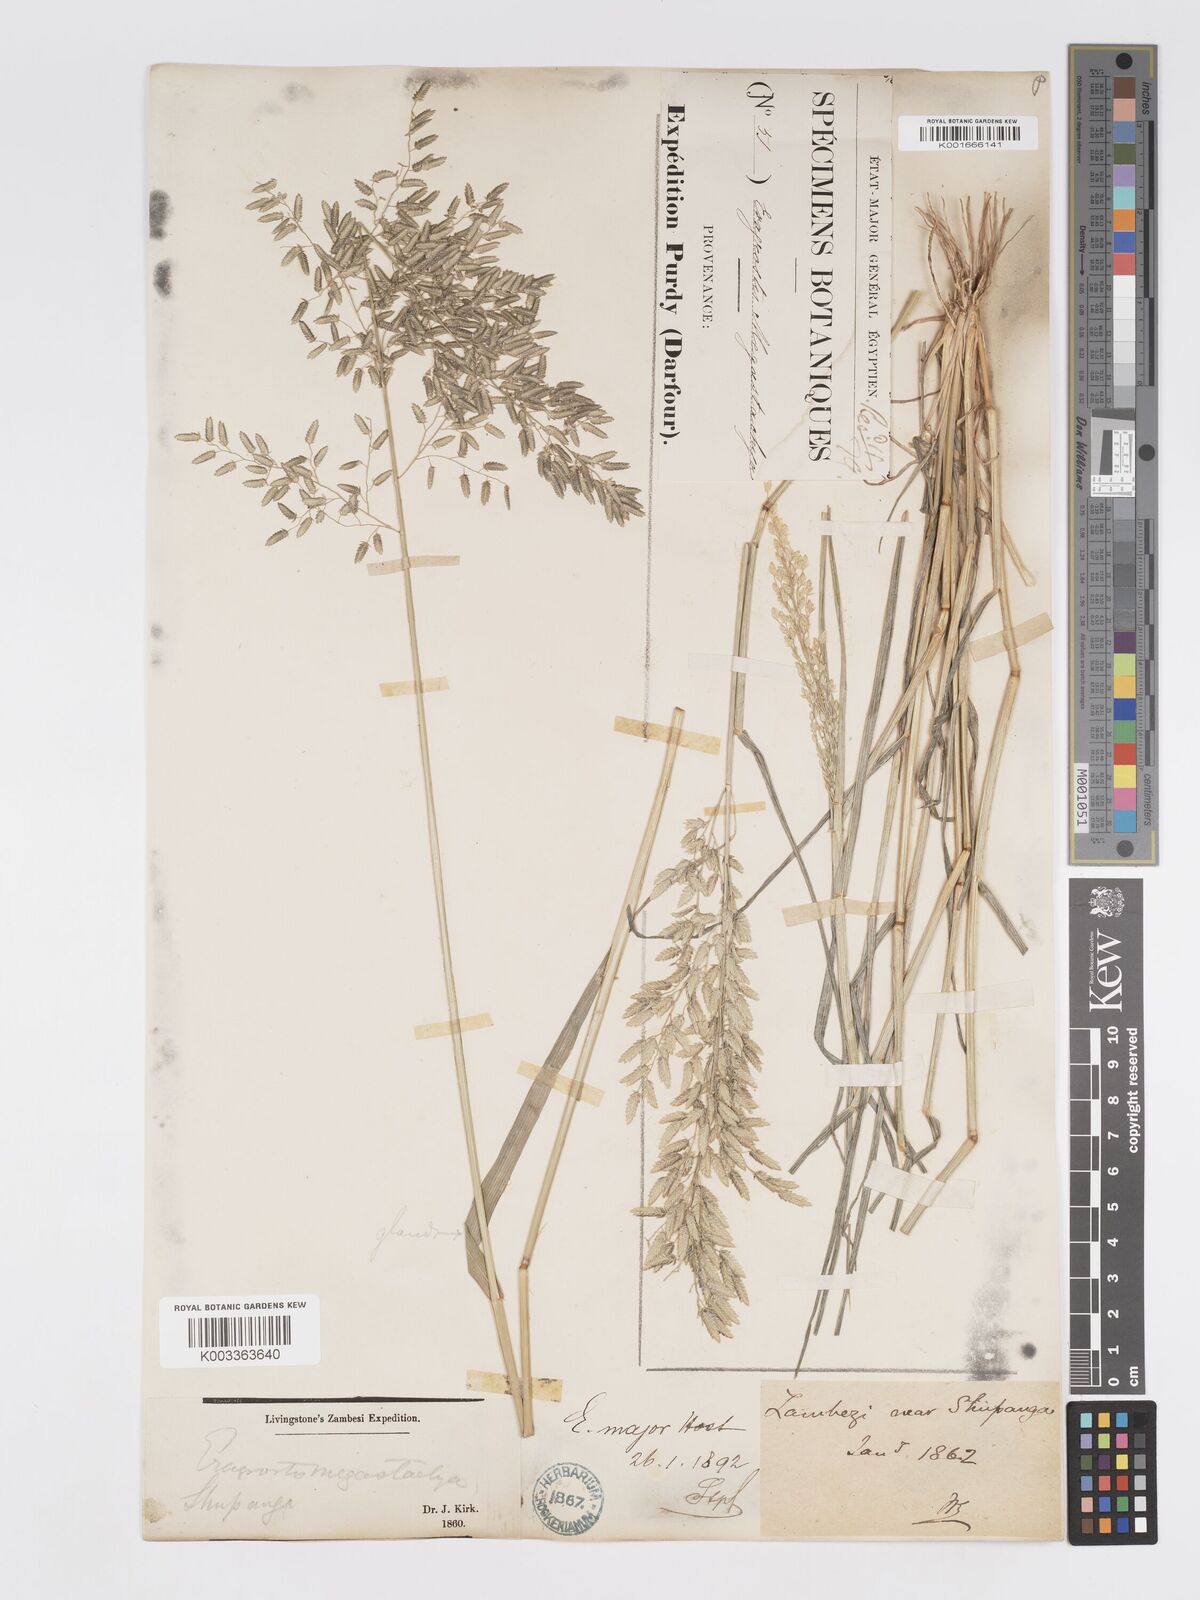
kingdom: Plantae
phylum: Tracheophyta
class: Liliopsida
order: Poales
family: Poaceae
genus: Eragrostis
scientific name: Eragrostis cilianensis
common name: Stinkgrass
